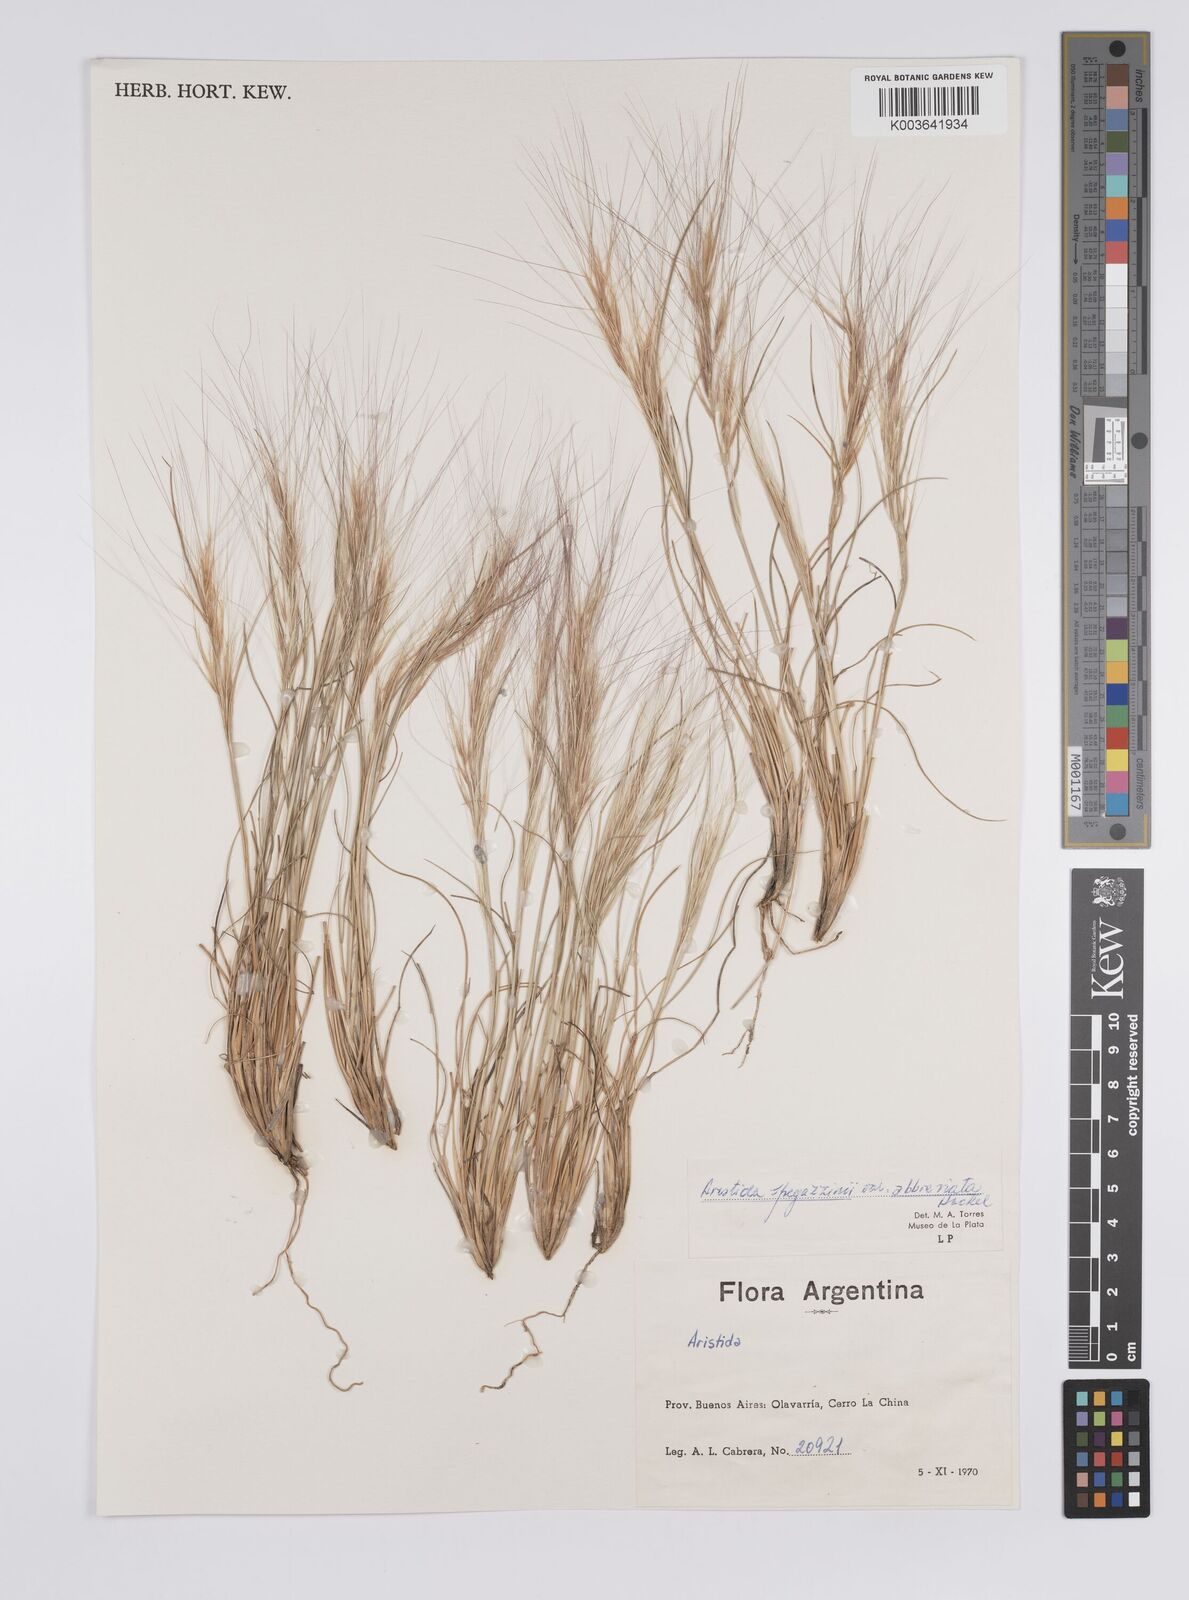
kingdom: Plantae
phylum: Tracheophyta
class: Liliopsida
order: Poales
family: Poaceae
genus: Aristida
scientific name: Aristida spegazzinii
